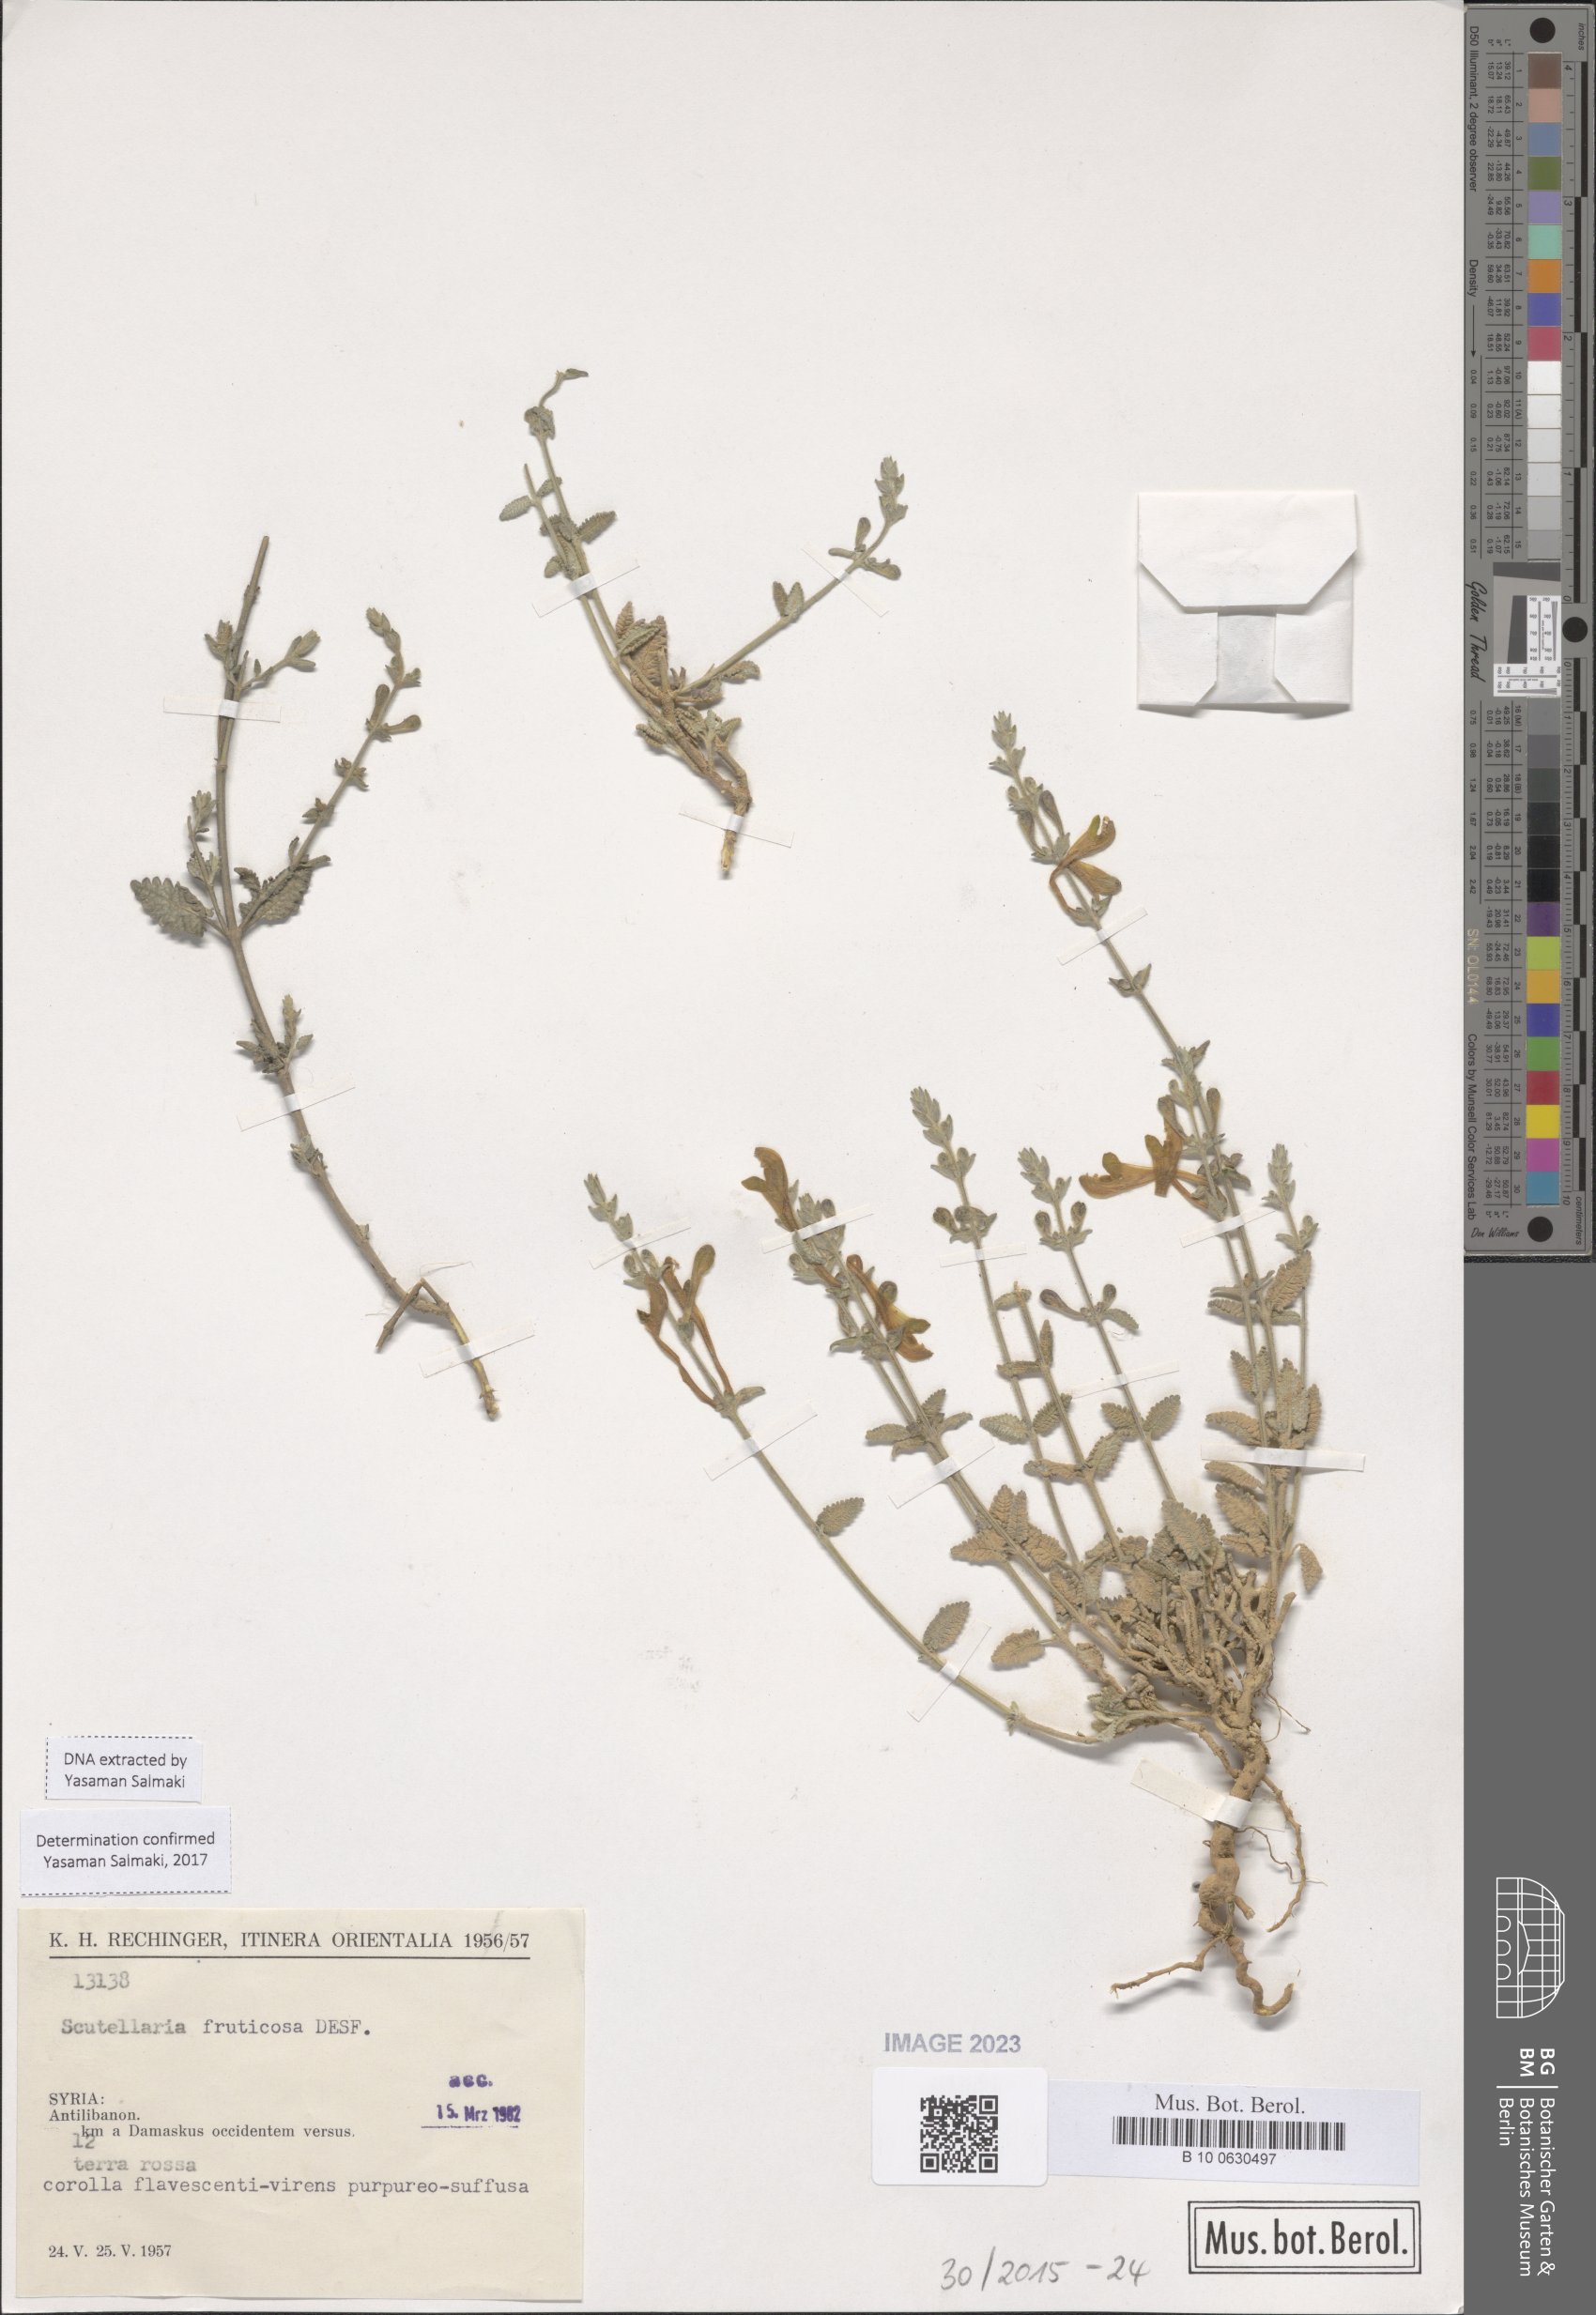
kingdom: Plantae
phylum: Tracheophyta
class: Magnoliopsida
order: Lamiales
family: Lamiaceae
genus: Scutellaria
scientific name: Scutellaria
